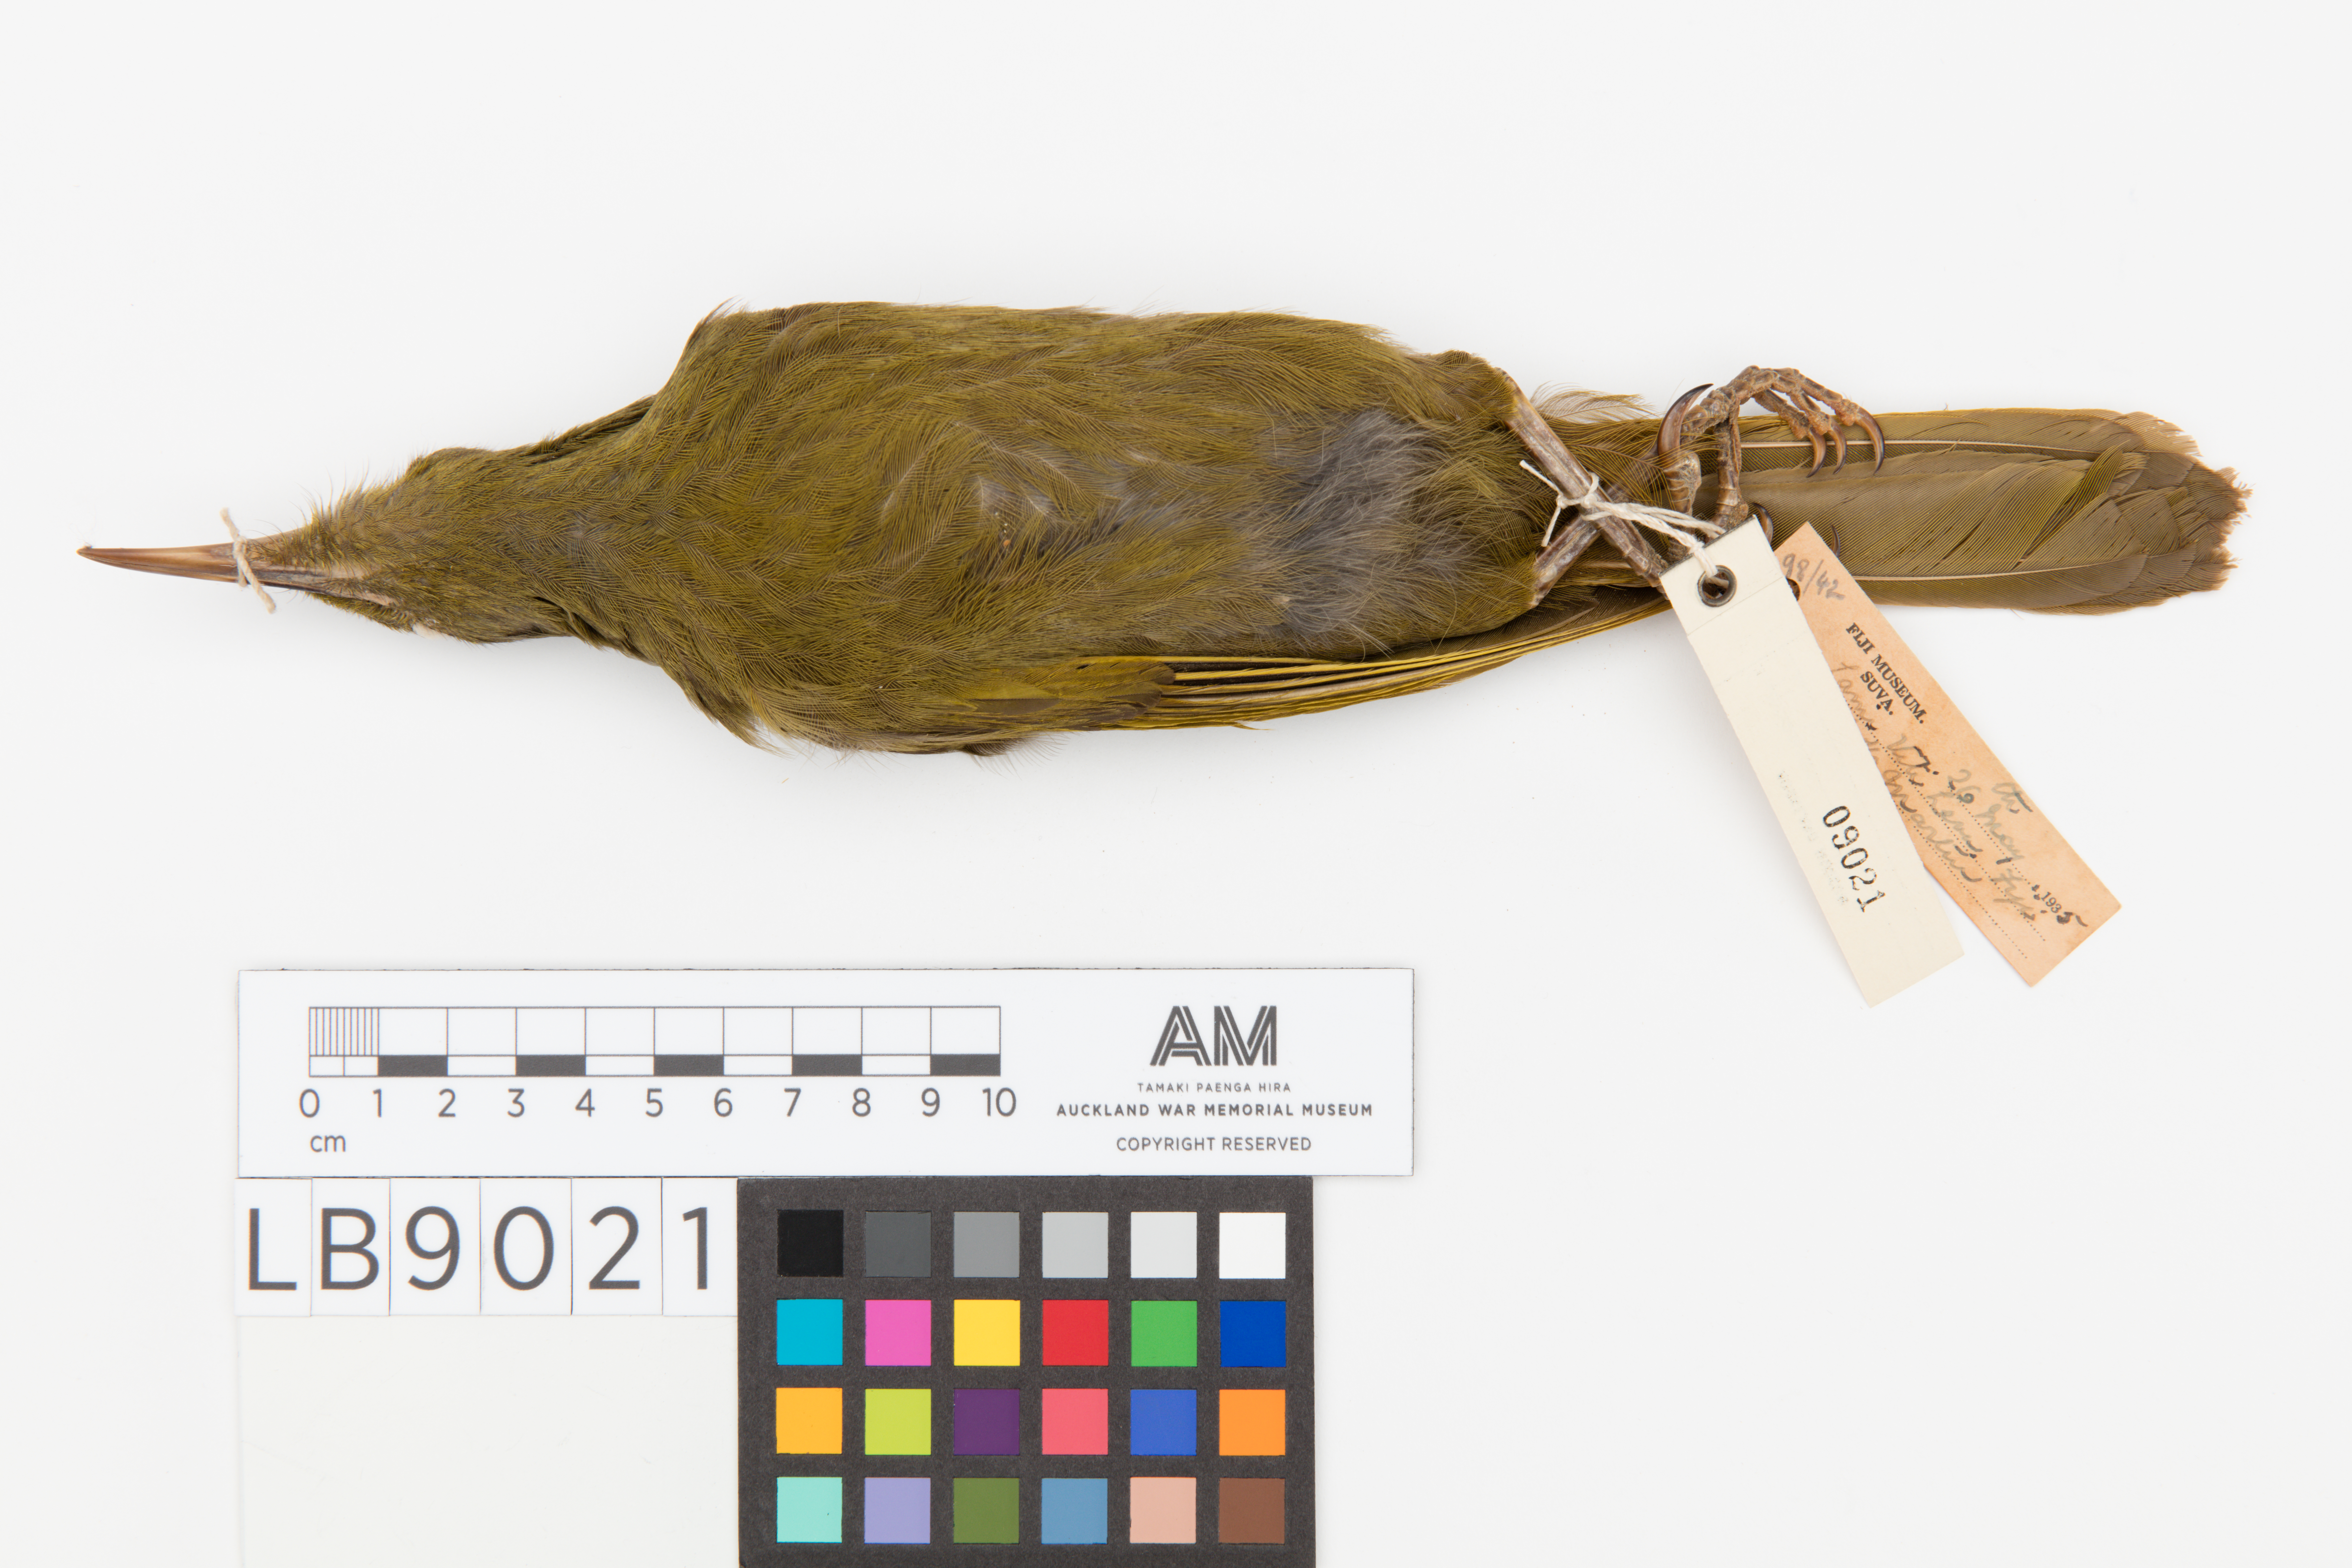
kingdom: Animalia
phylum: Chordata
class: Aves
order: Passeriformes
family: Meliphagidae
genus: Gymnomyza
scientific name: Gymnomyza viridis
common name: Yellow-billed honeyeater
